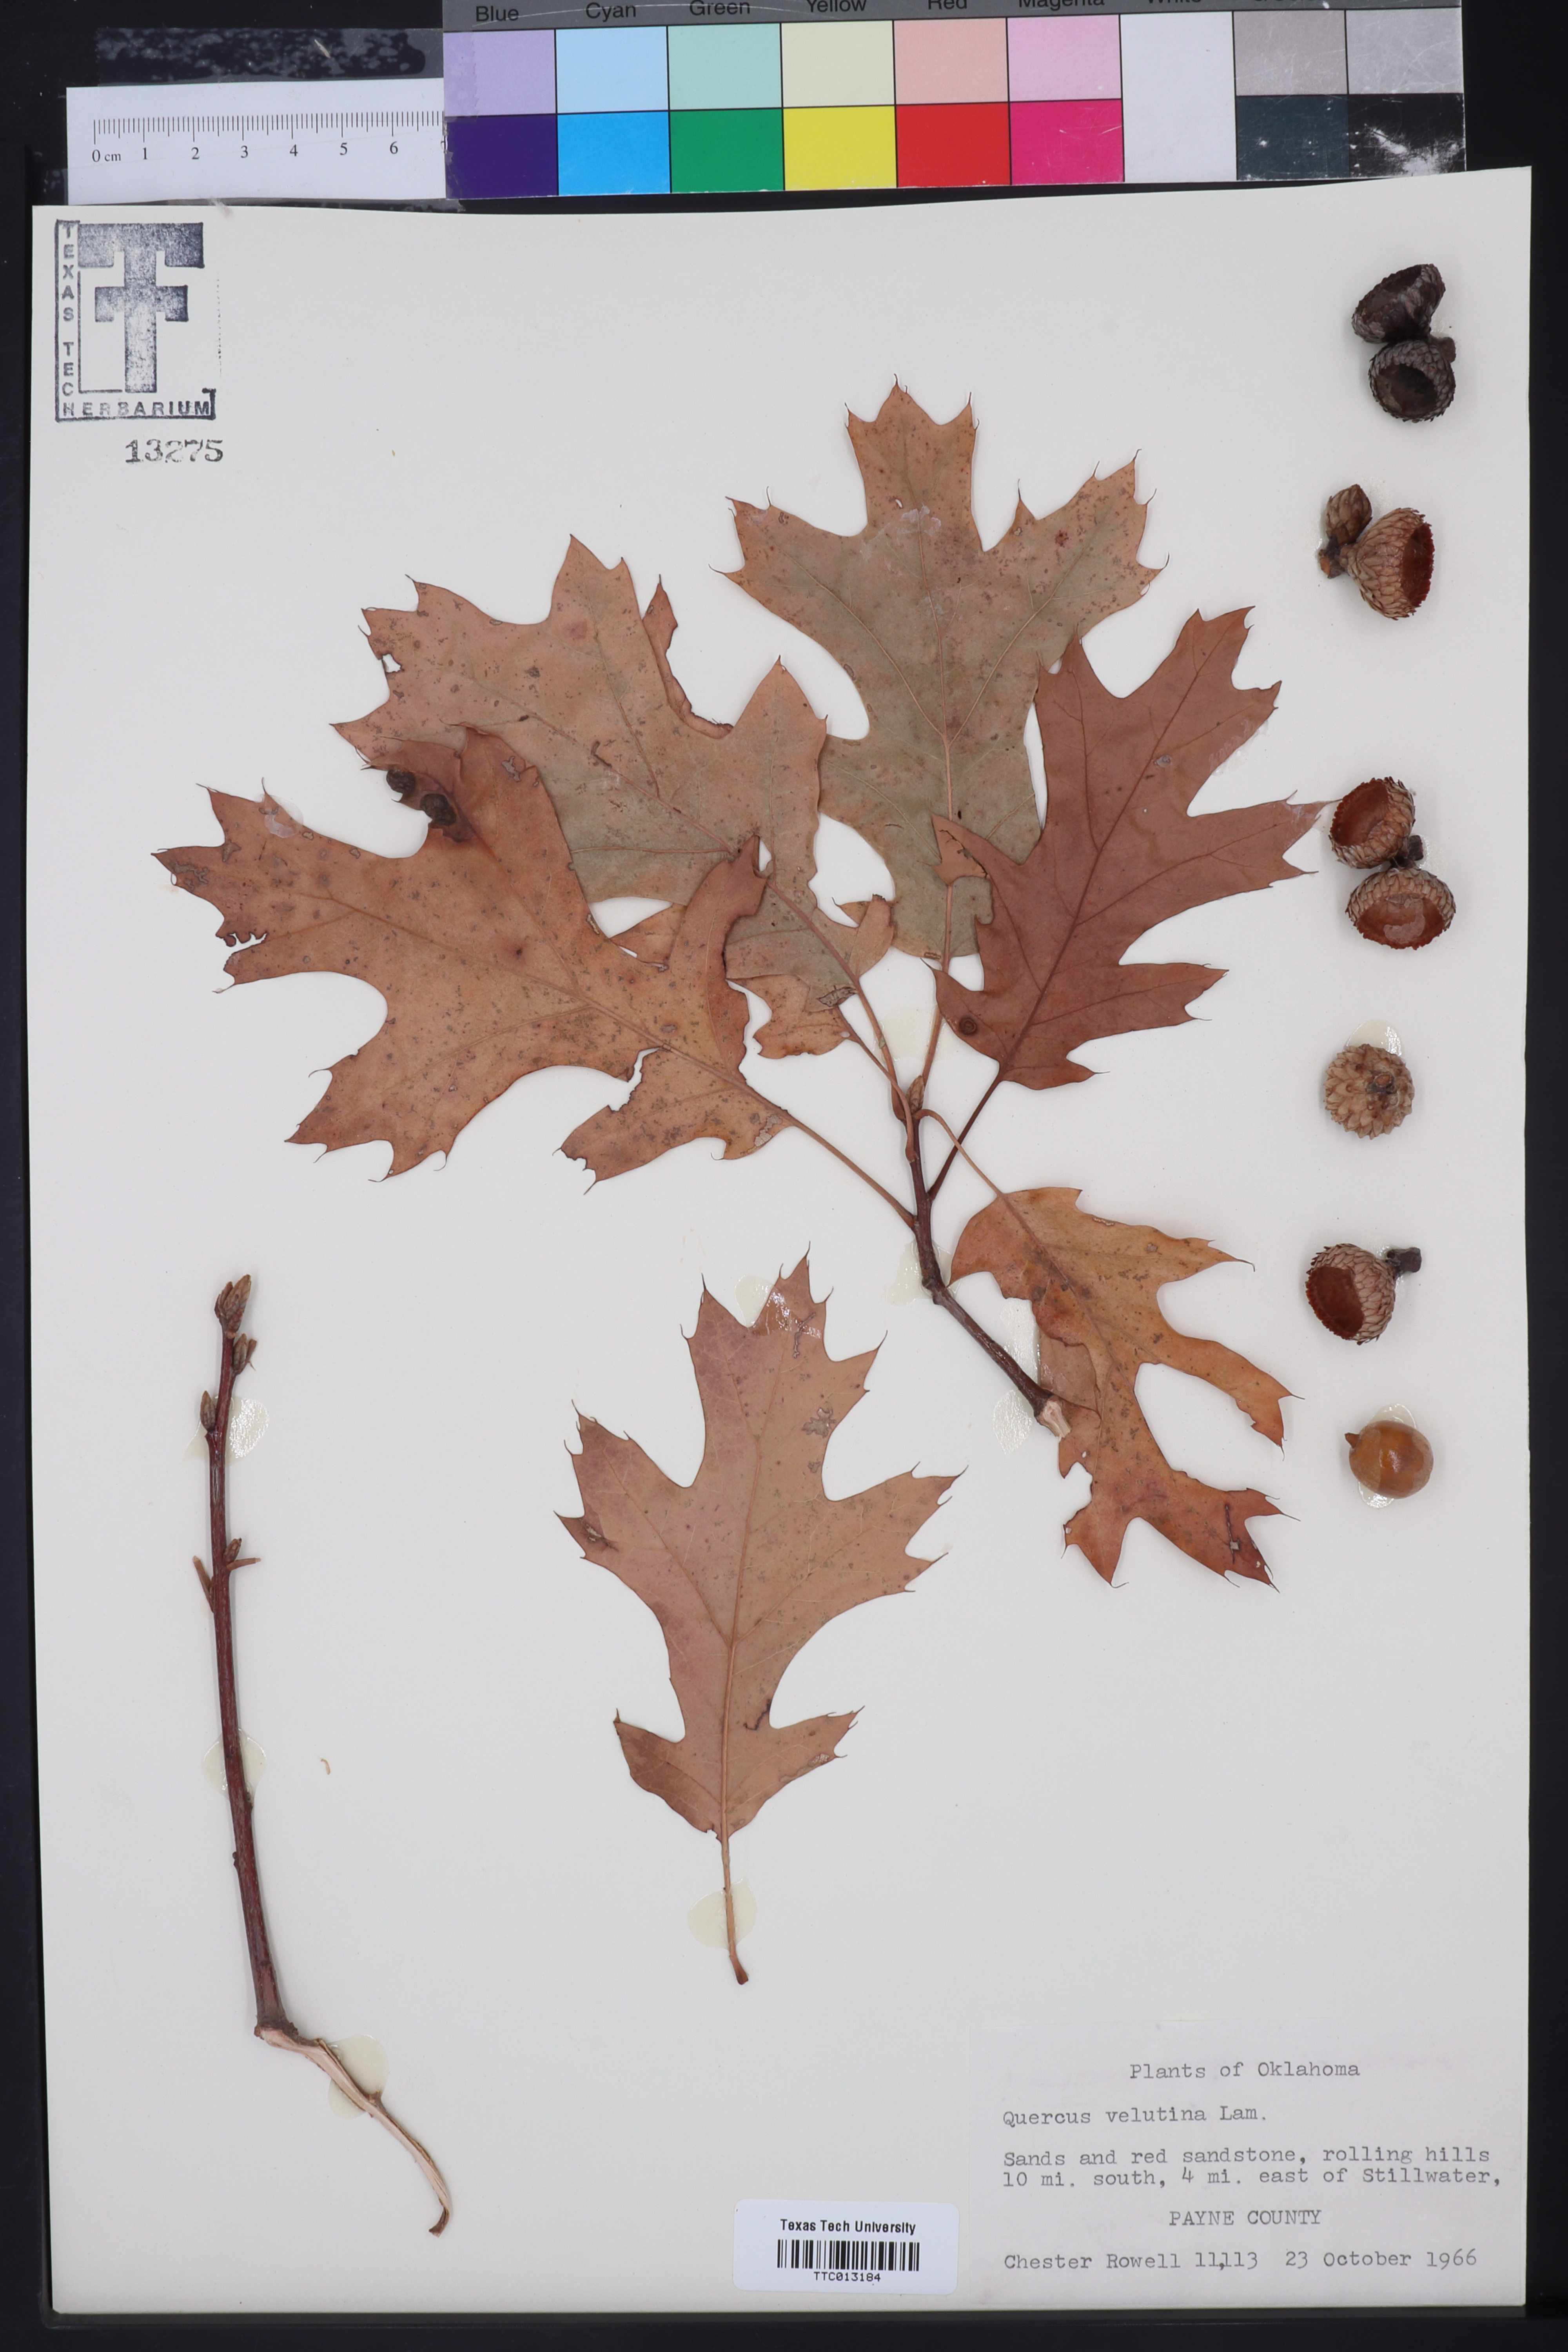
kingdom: Plantae
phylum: Tracheophyta
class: Magnoliopsida
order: Fagales
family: Fagaceae
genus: Quercus
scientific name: Quercus velutina
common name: Black oak
